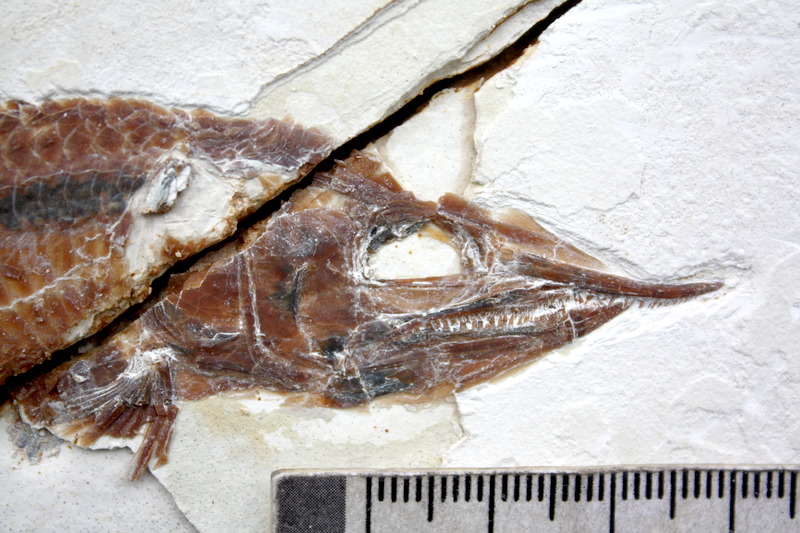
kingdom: Animalia
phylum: Chordata
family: Aspidorhynchidae
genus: Aspidorhynchus
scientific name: Aspidorhynchus sanzenbacheri
